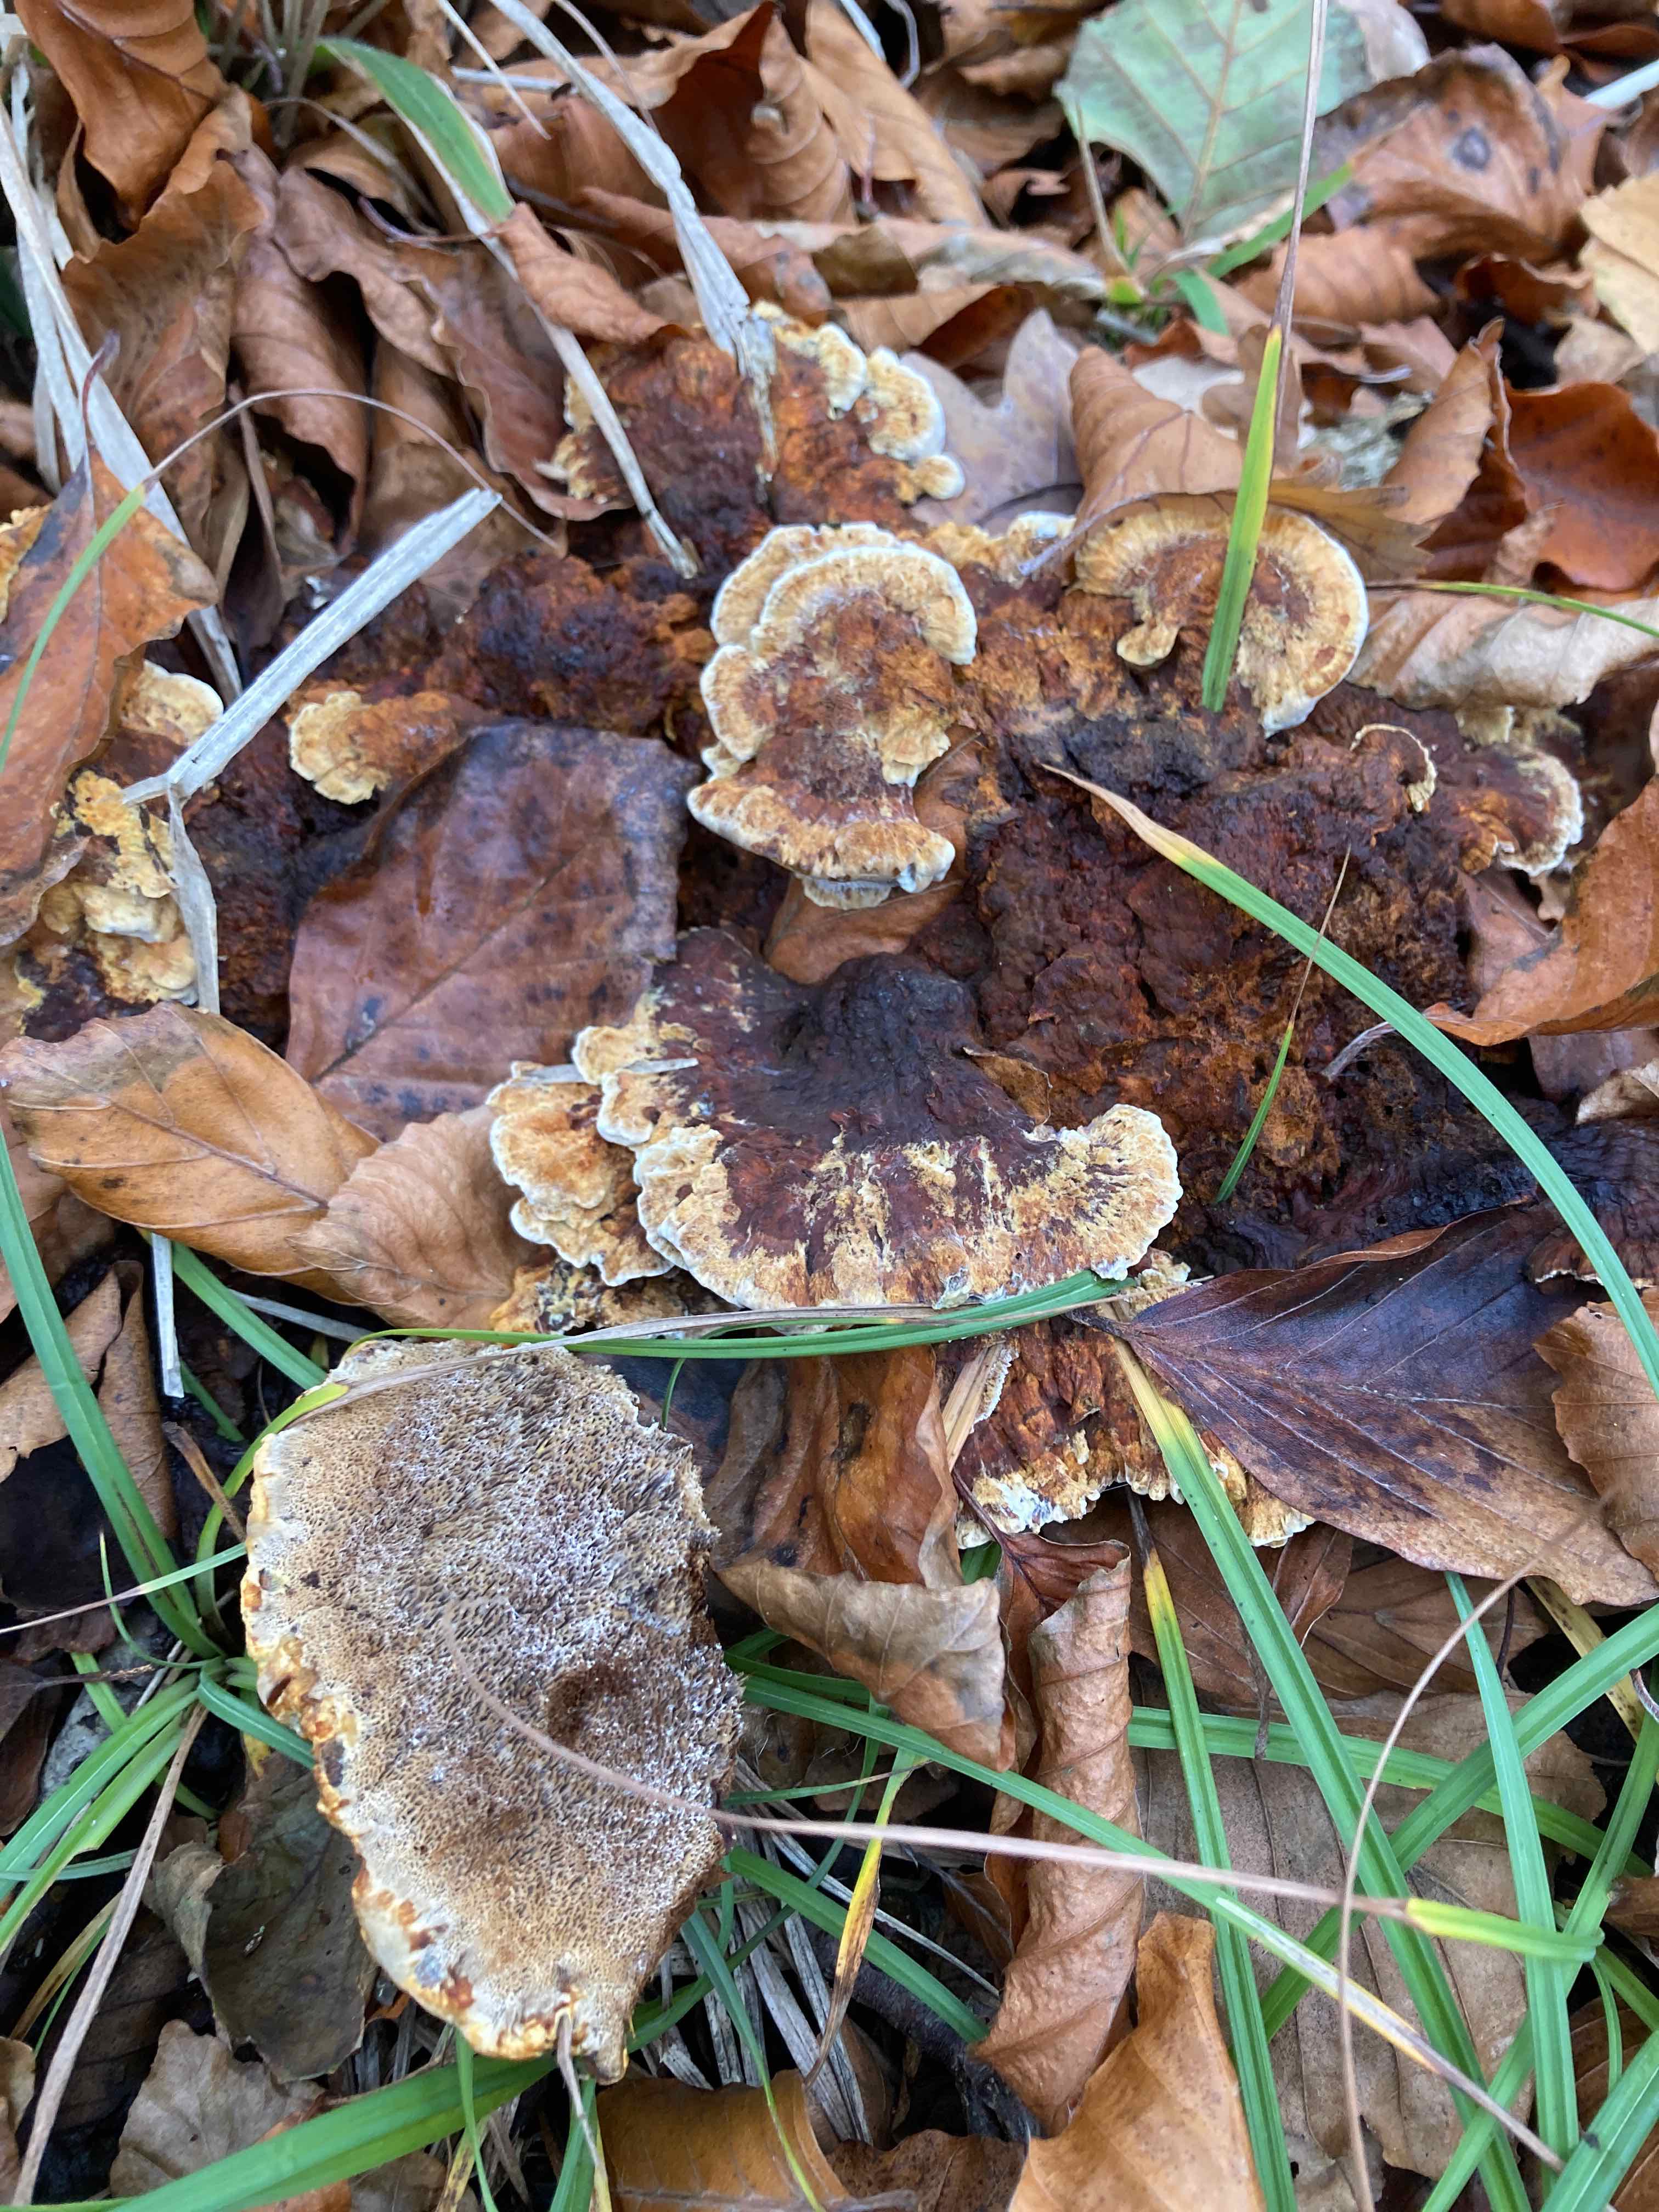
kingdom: Fungi
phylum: Basidiomycota
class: Agaricomycetes
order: Hymenochaetales
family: Hymenochaetaceae
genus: Xanthoporia
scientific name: Xanthoporia radiata
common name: elle-spejlporesvamp
